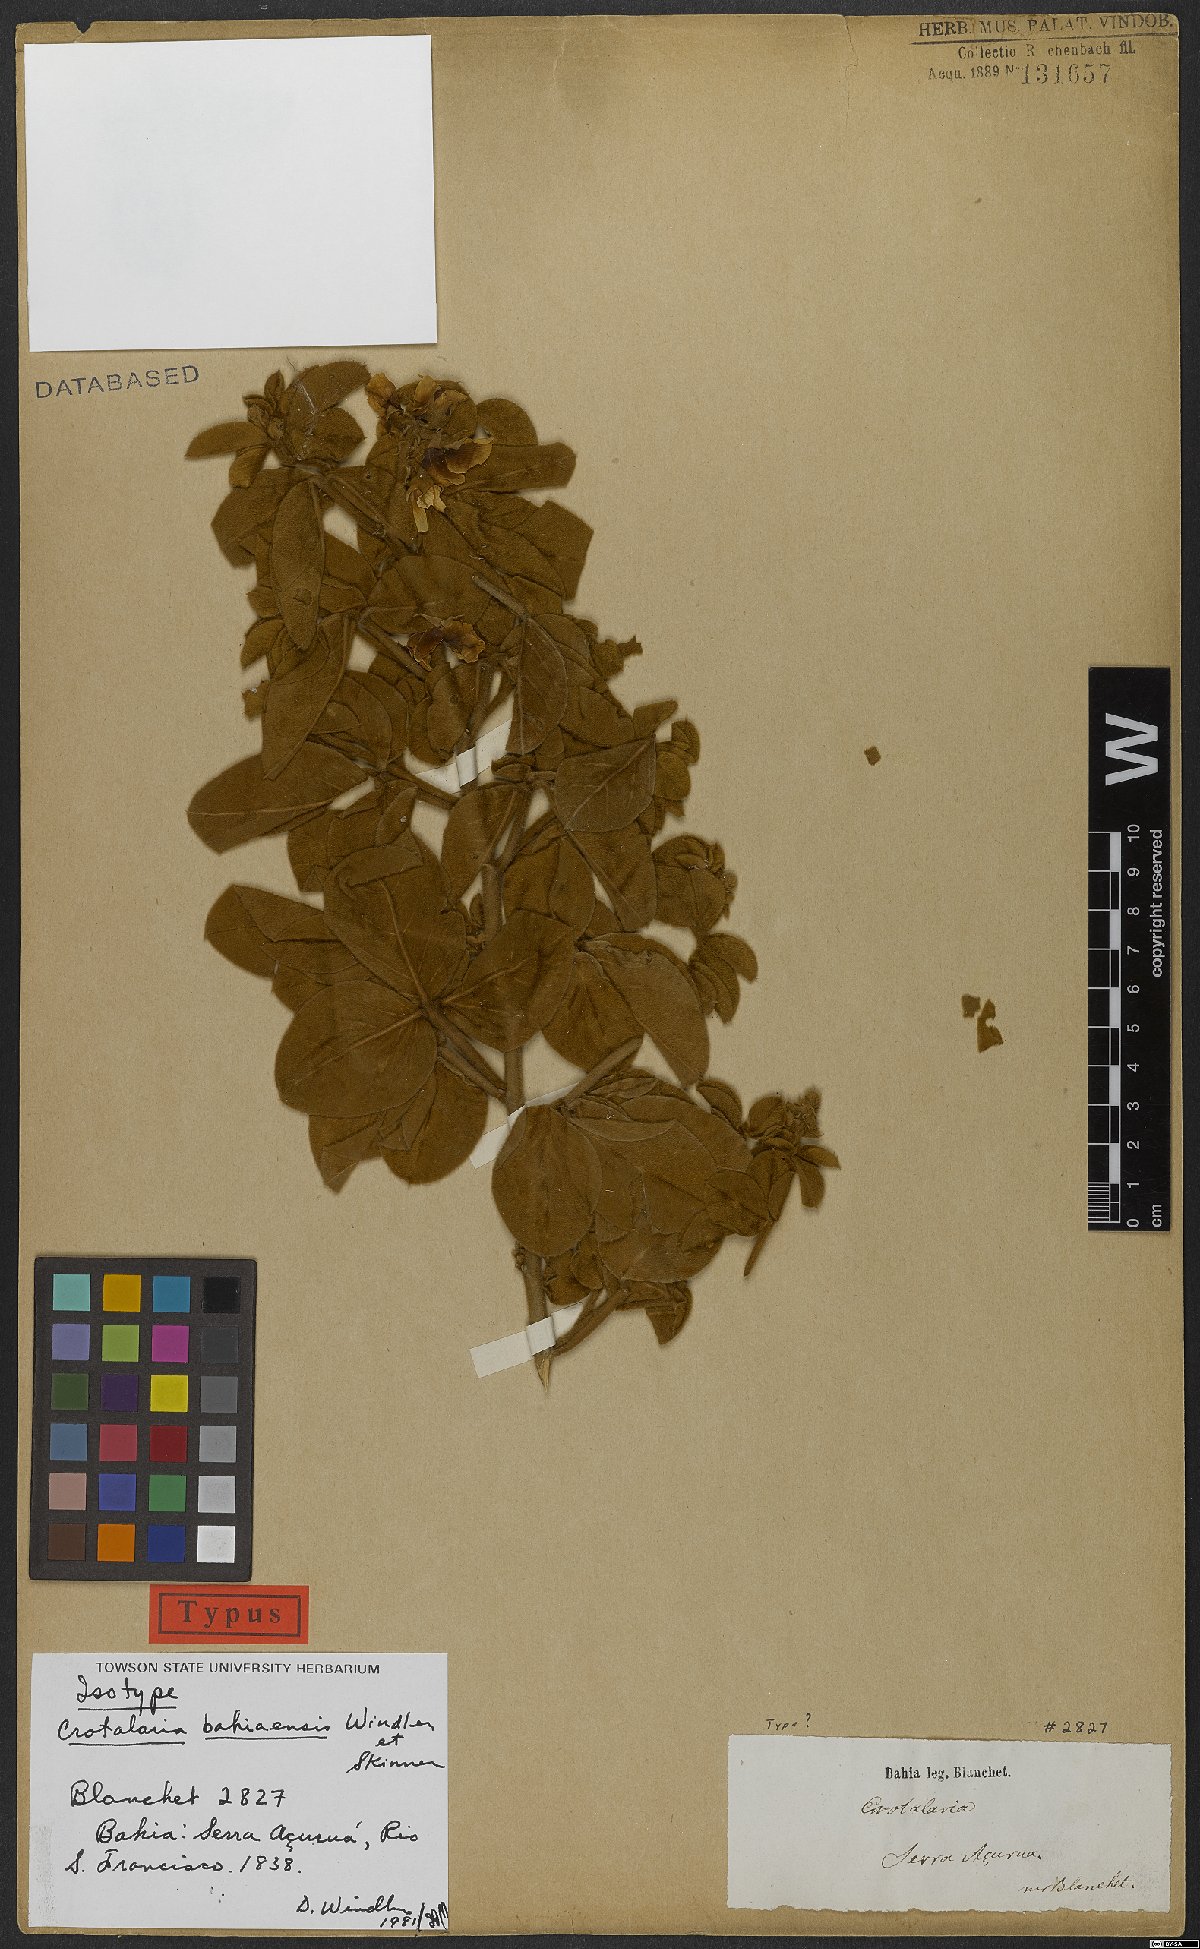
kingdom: Plantae
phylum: Tracheophyta
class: Magnoliopsida
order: Fabales
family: Fabaceae
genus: Crotalaria
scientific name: Crotalaria bahiaensis
